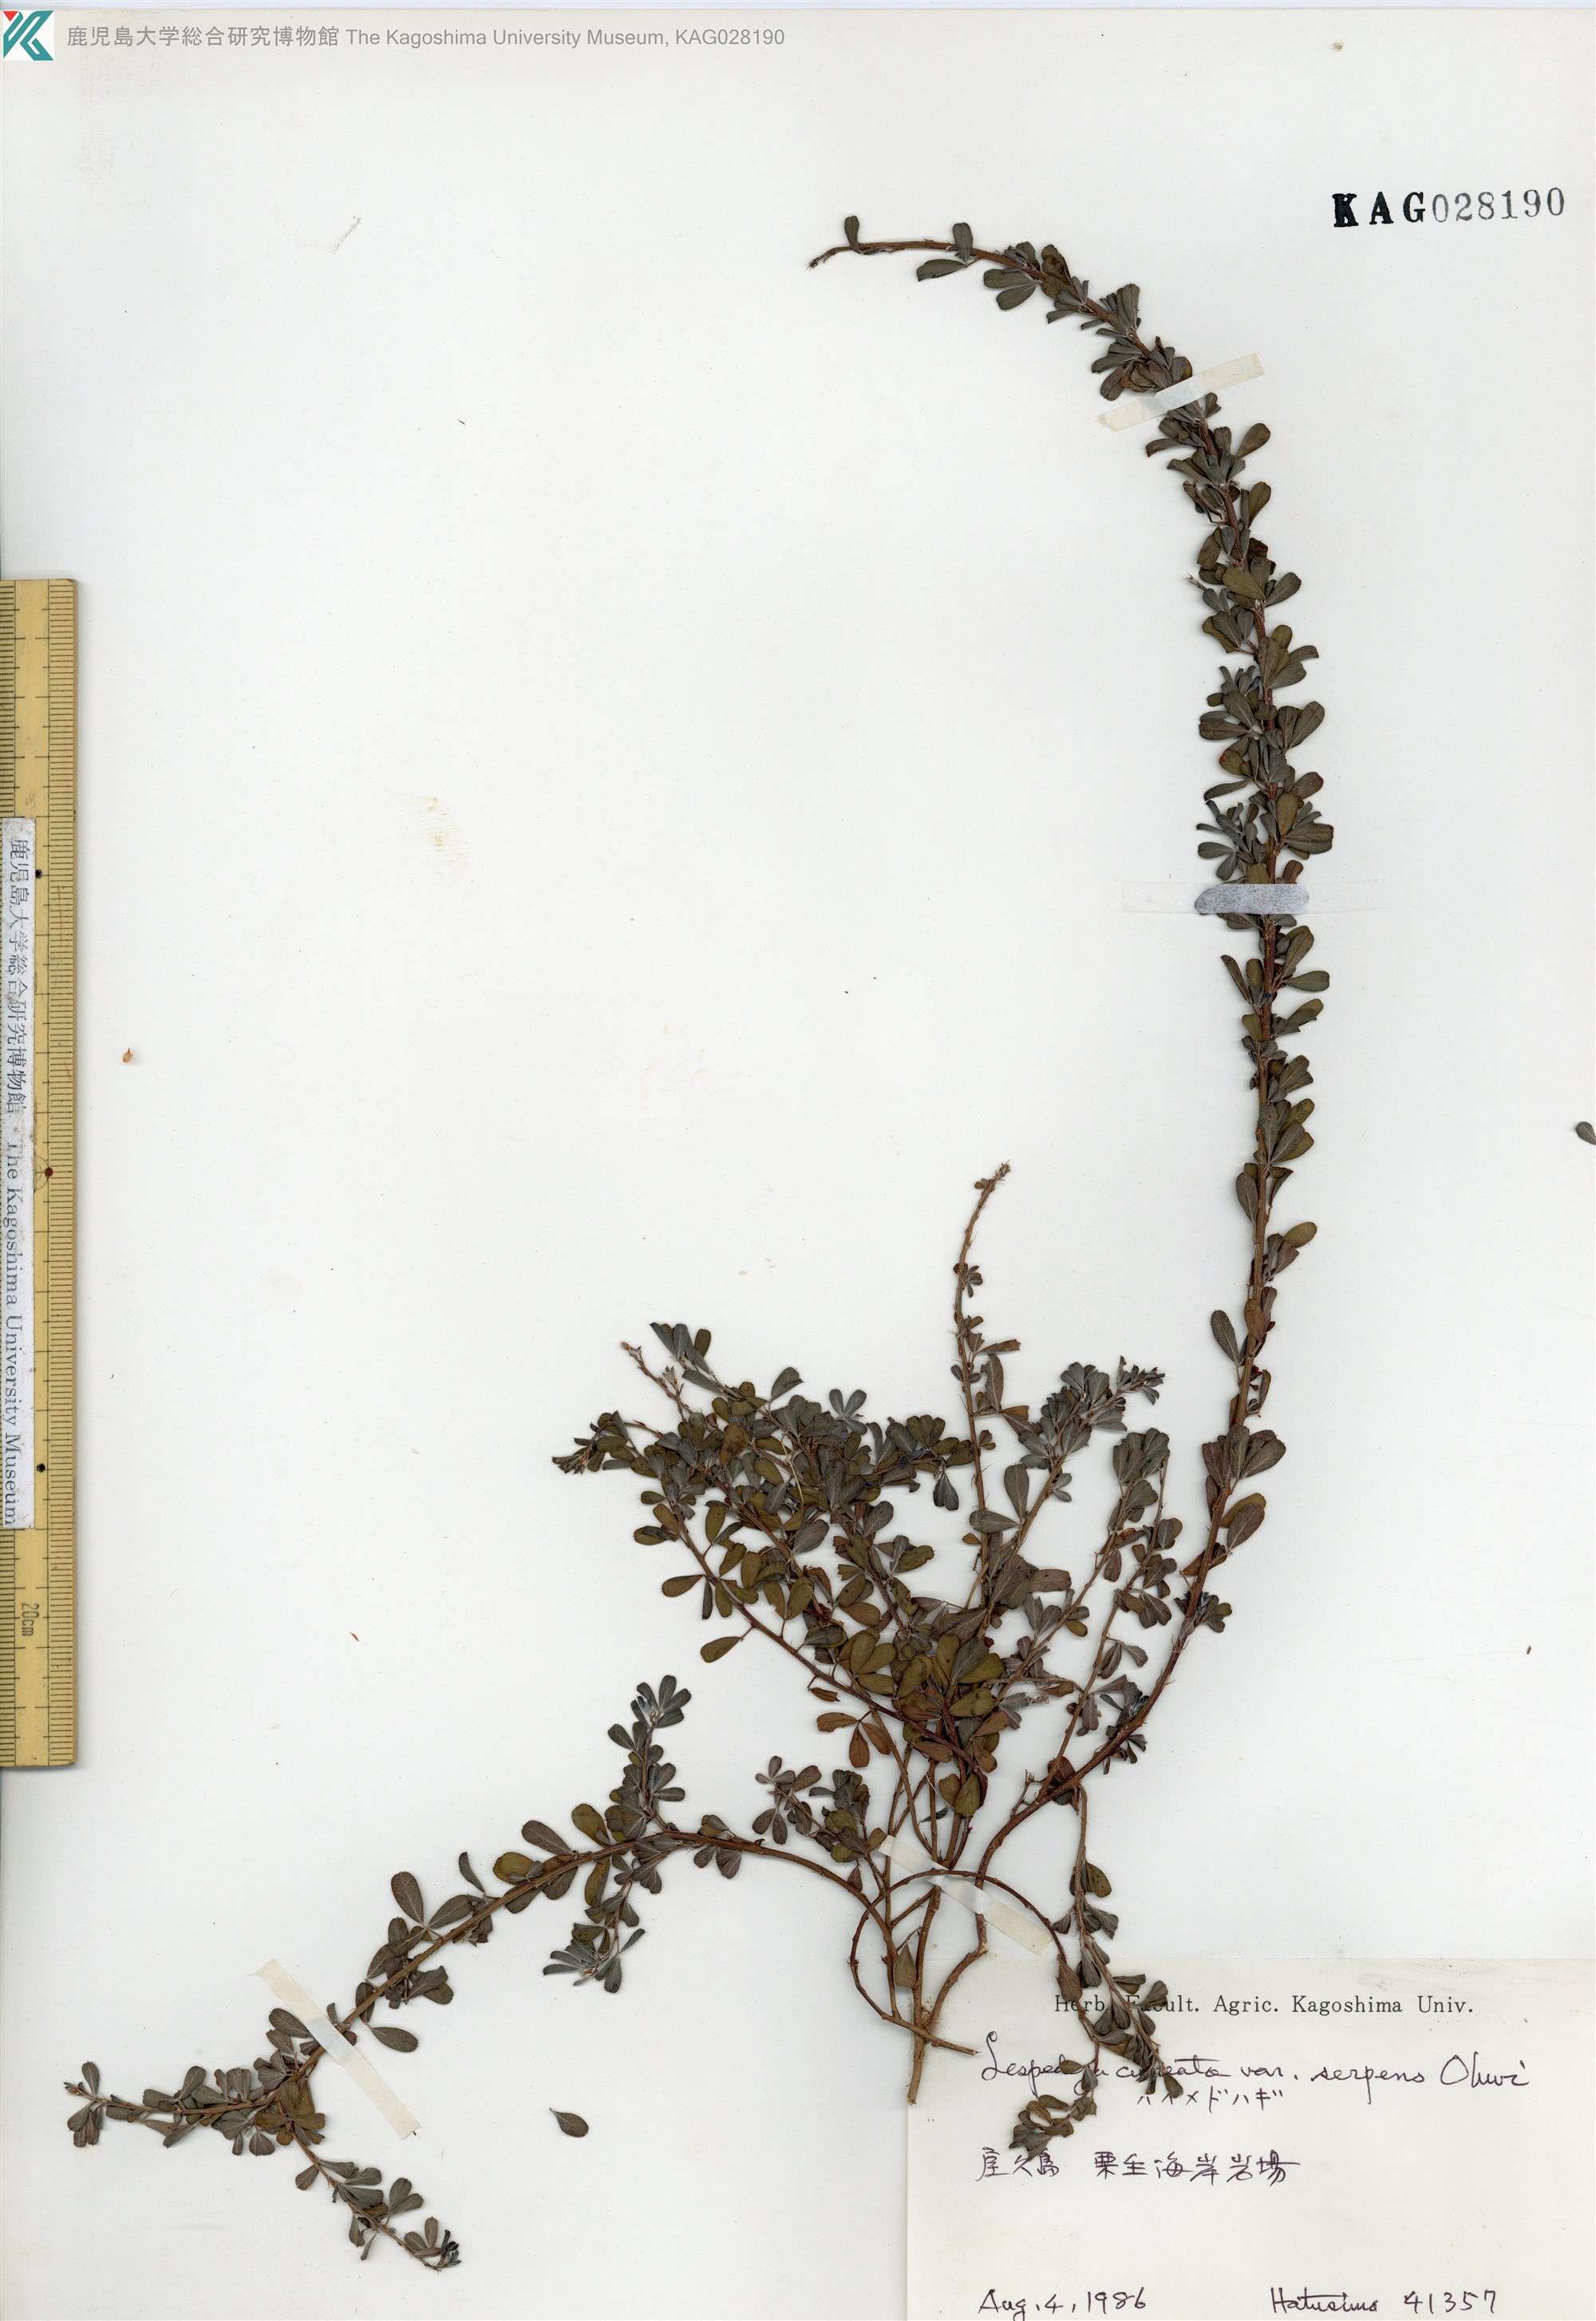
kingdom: Plantae
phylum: Tracheophyta
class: Magnoliopsida
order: Fabales
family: Fabaceae
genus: Lespedeza
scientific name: Lespedeza cuneata
